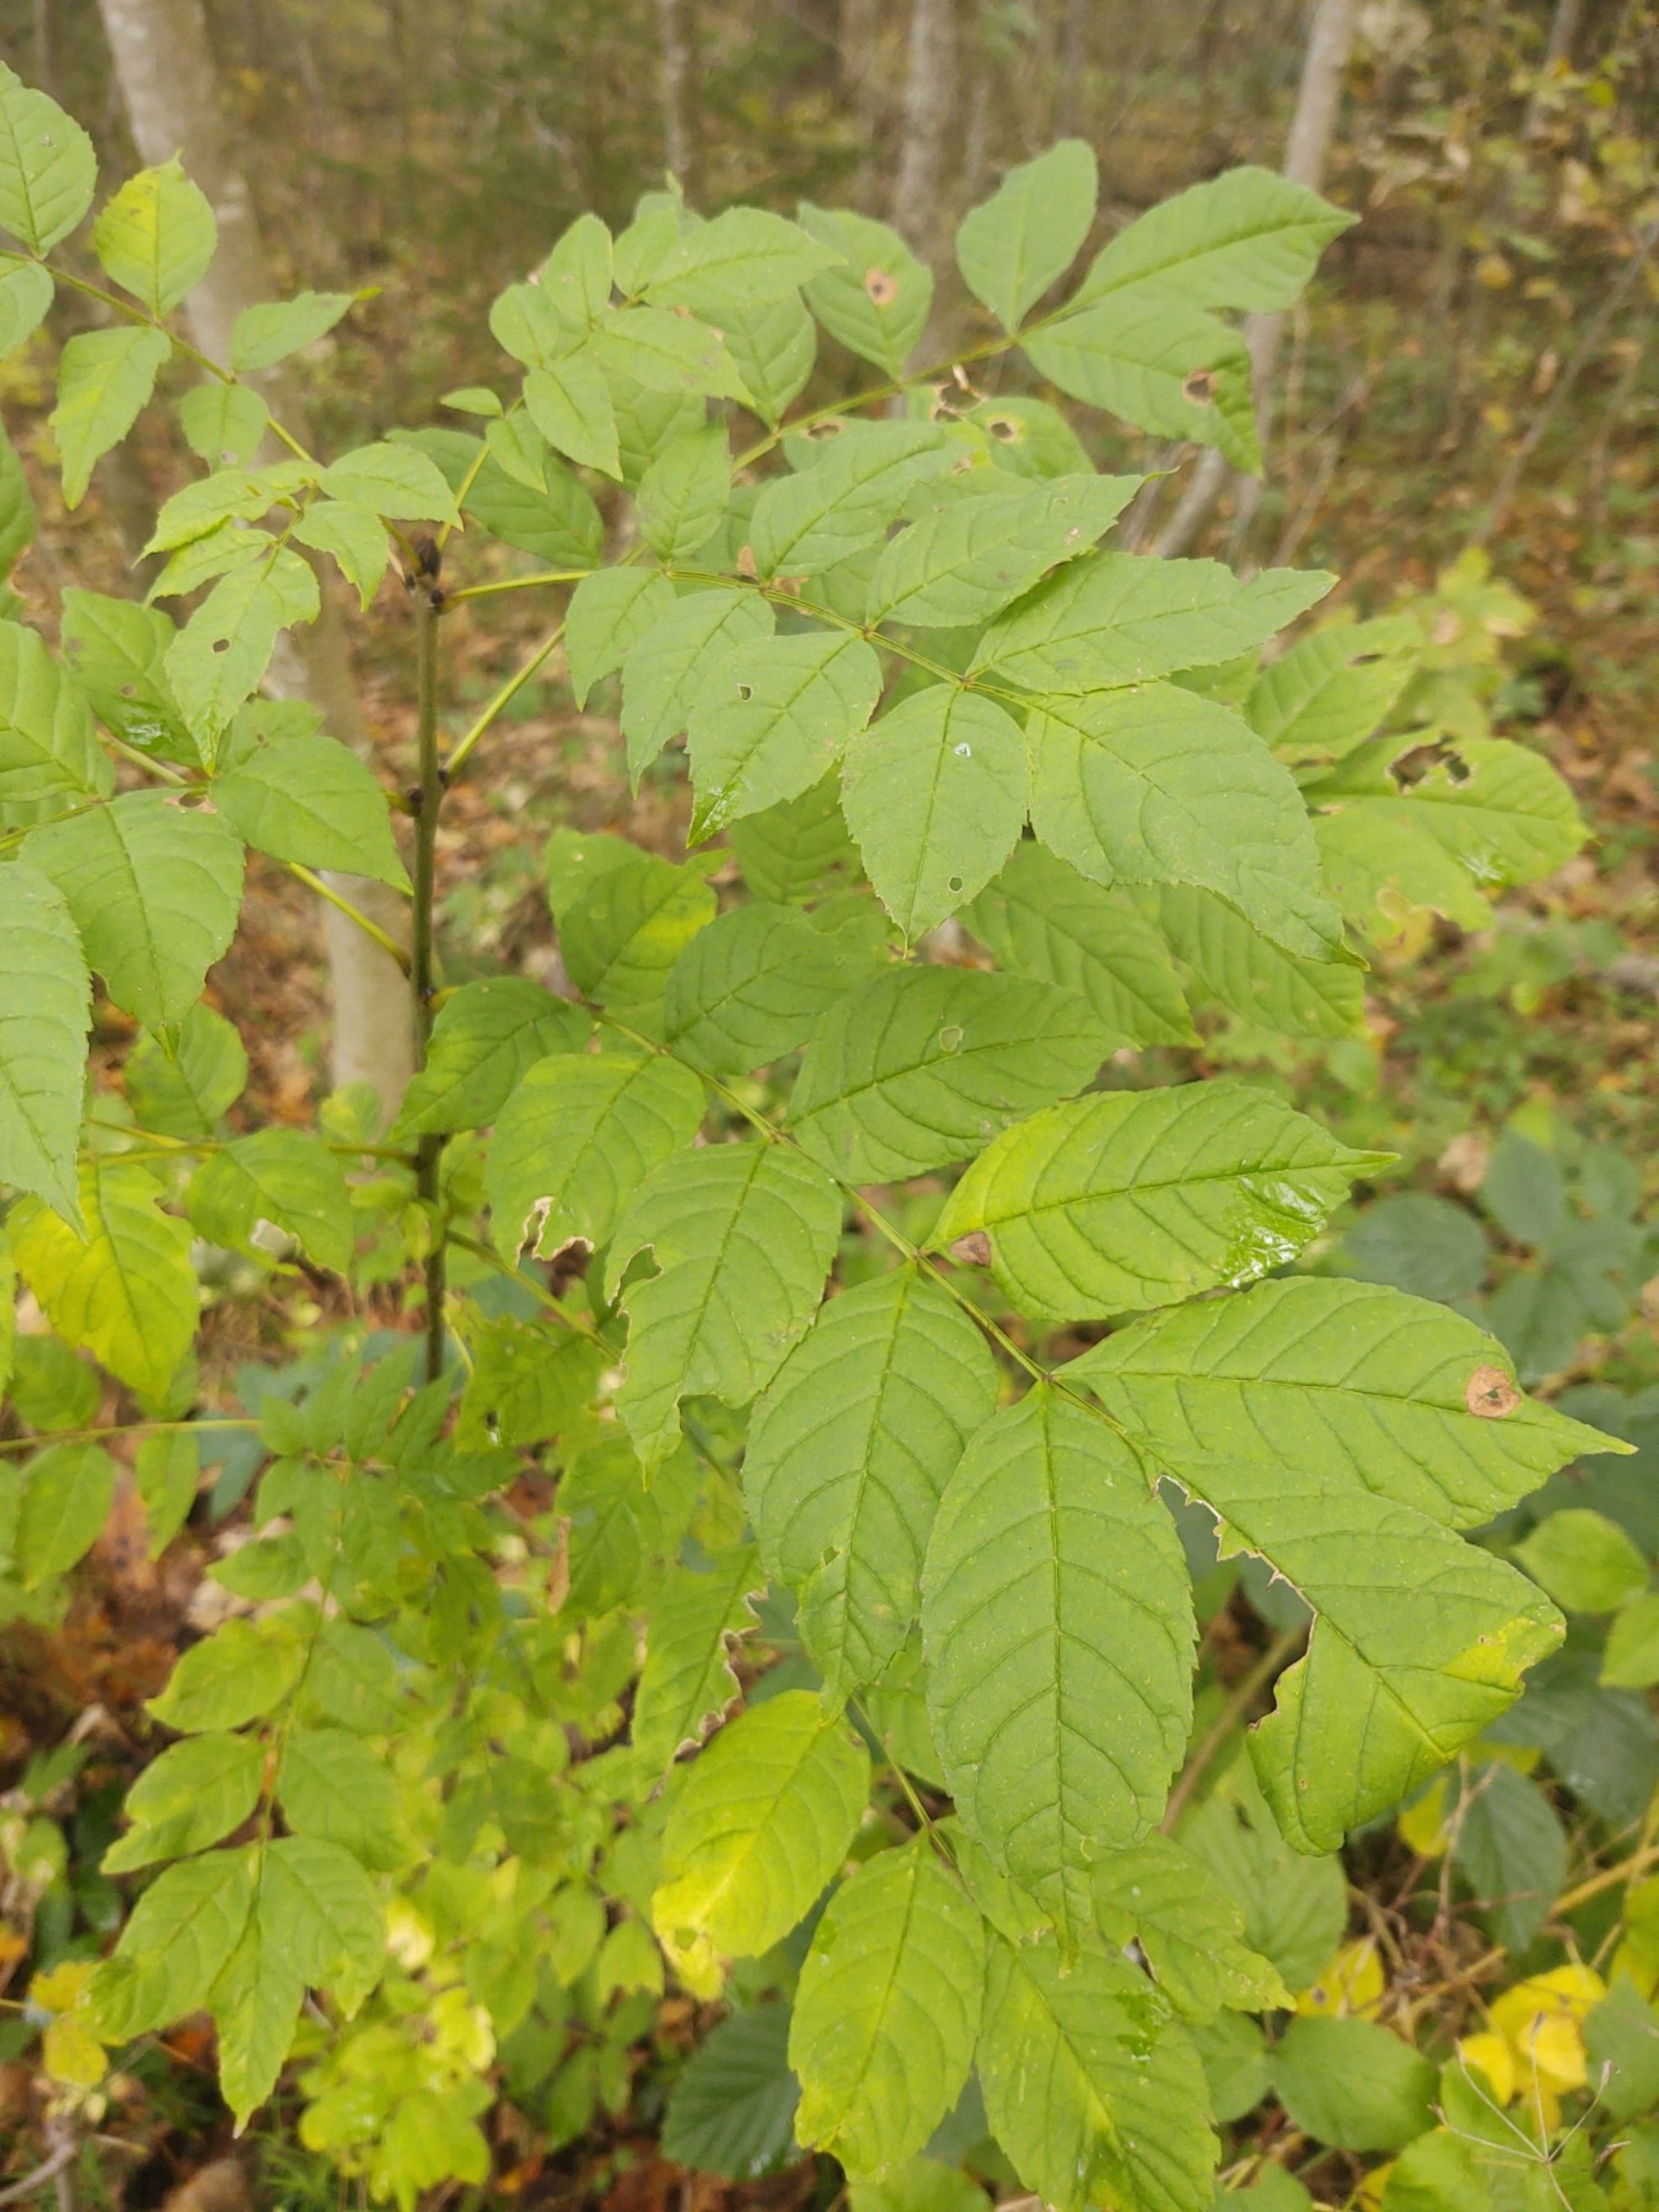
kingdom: Plantae
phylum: Tracheophyta
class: Magnoliopsida
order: Lamiales
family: Oleaceae
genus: Fraxinus
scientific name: Fraxinus excelsior
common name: Ask
